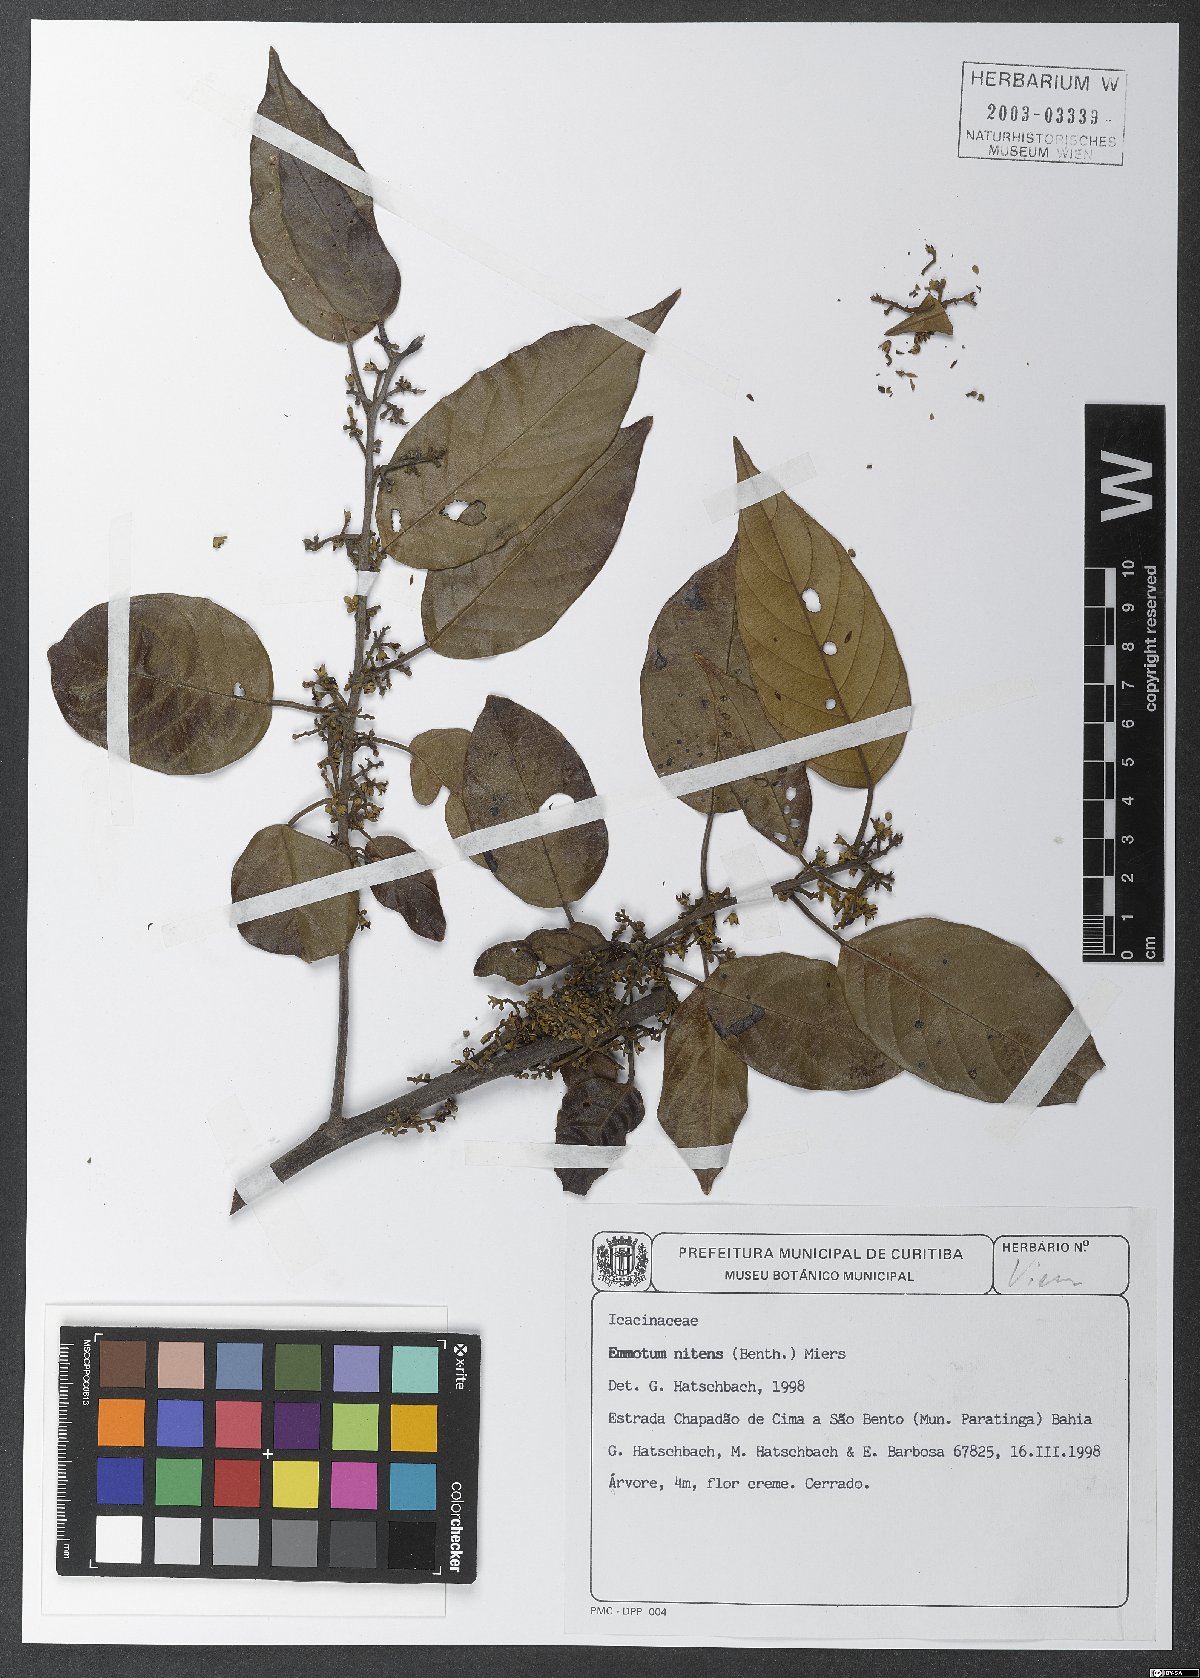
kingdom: Plantae
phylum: Tracheophyta
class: Magnoliopsida
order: Metteniusales
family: Metteniusaceae
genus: Emmotum
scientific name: Emmotum nitens
